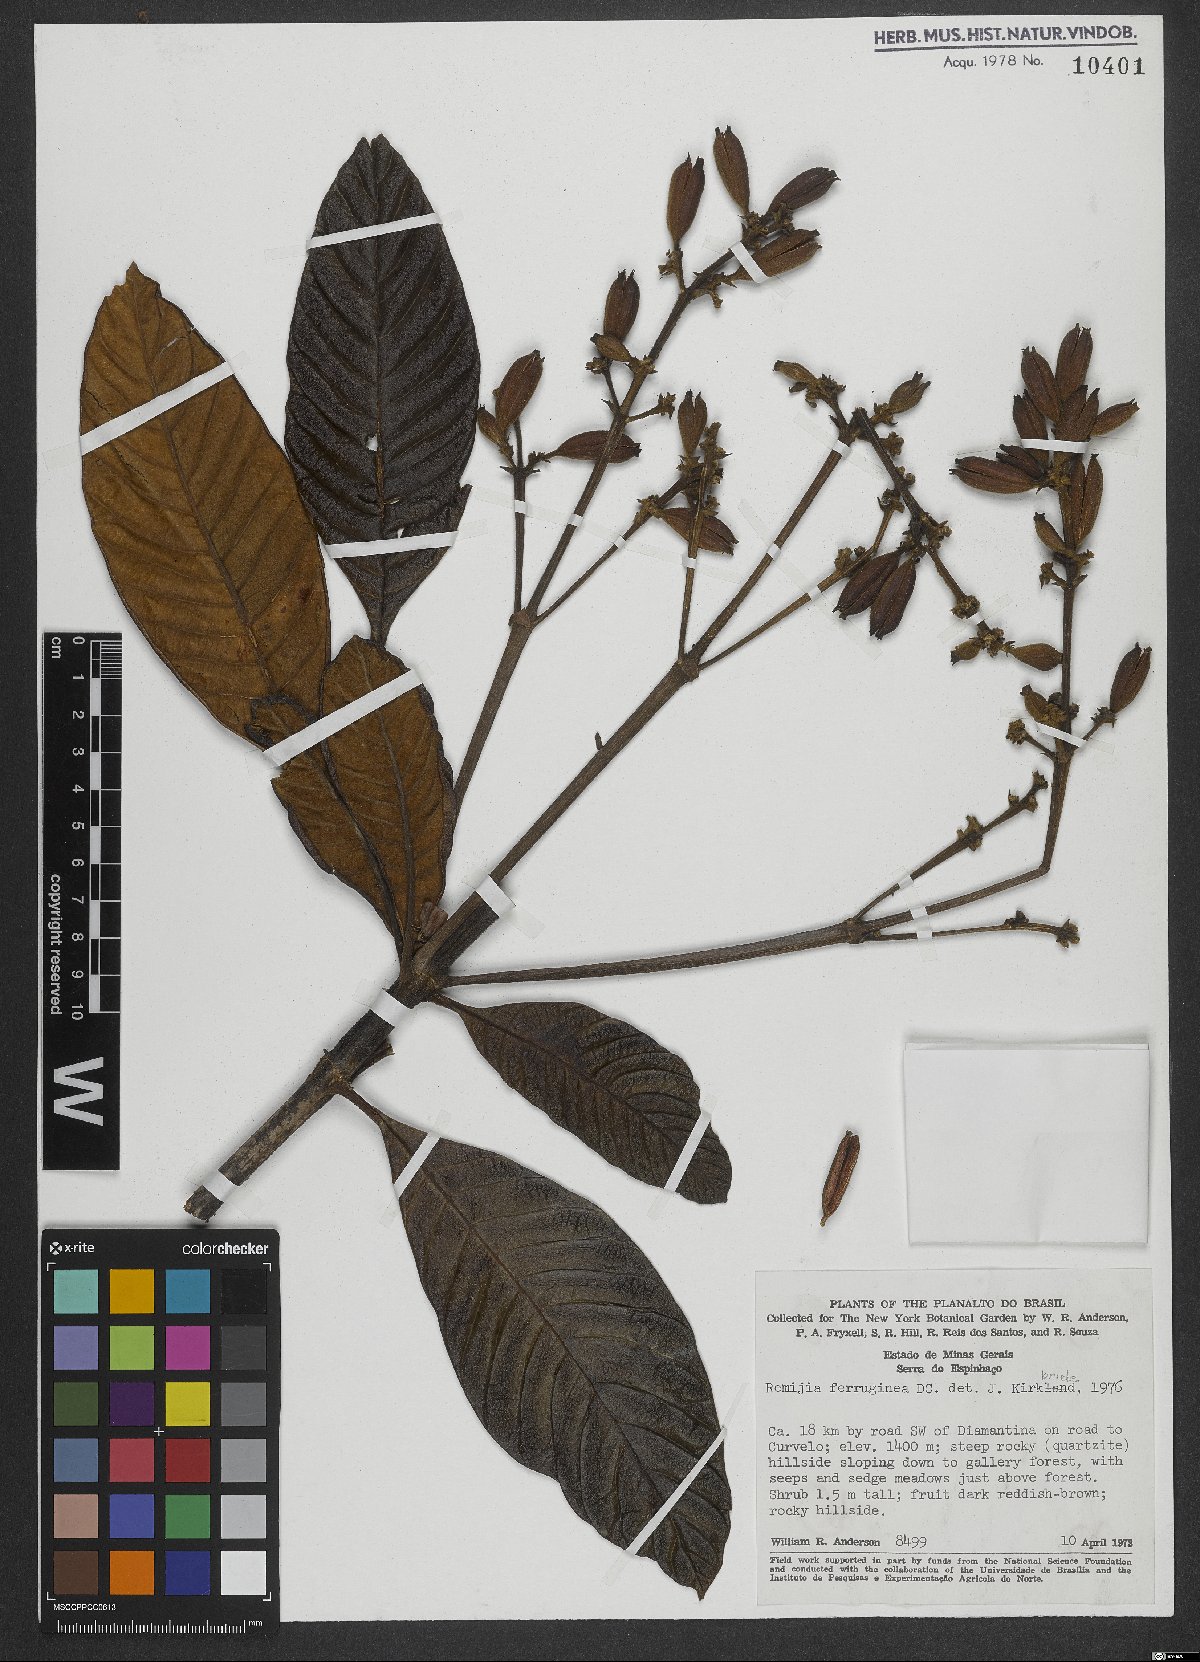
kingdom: Plantae
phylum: Tracheophyta
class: Magnoliopsida
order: Gentianales
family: Rubiaceae
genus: Remijia
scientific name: Remijia ferruginea
